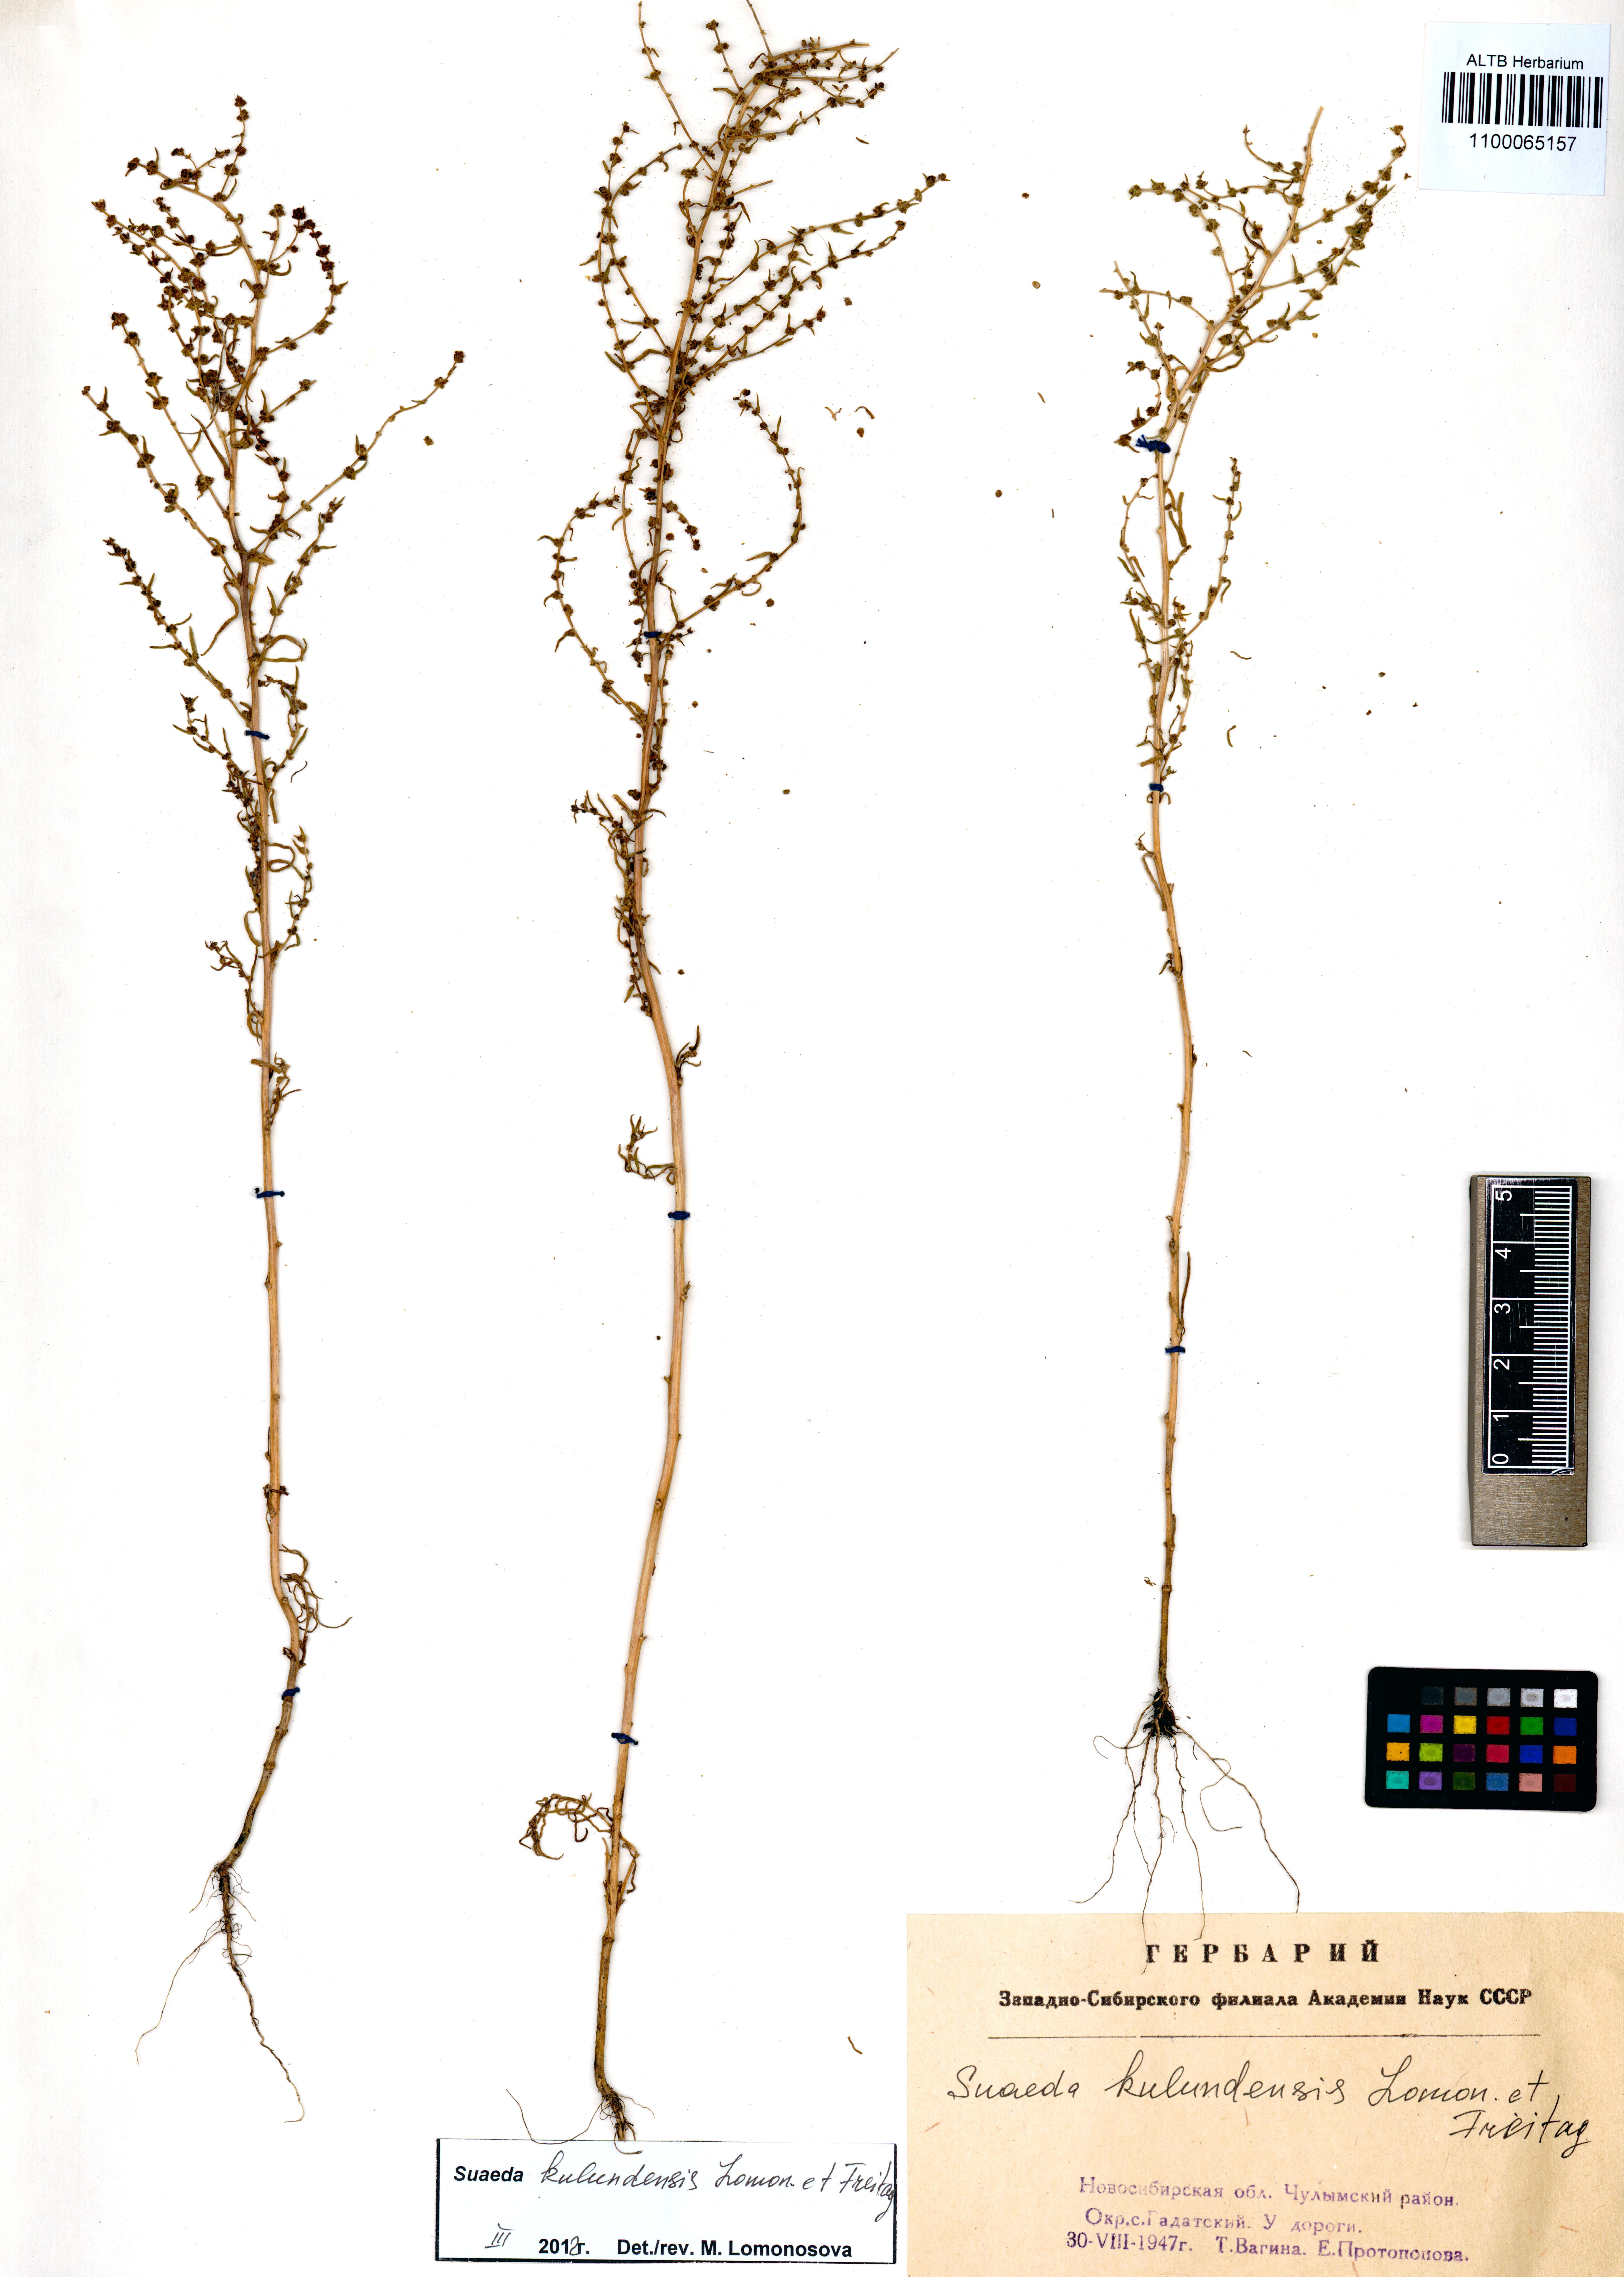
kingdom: Plantae
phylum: Tracheophyta
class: Magnoliopsida
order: Caryophyllales
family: Amaranthaceae
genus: Suaeda
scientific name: Suaeda kulundensis
